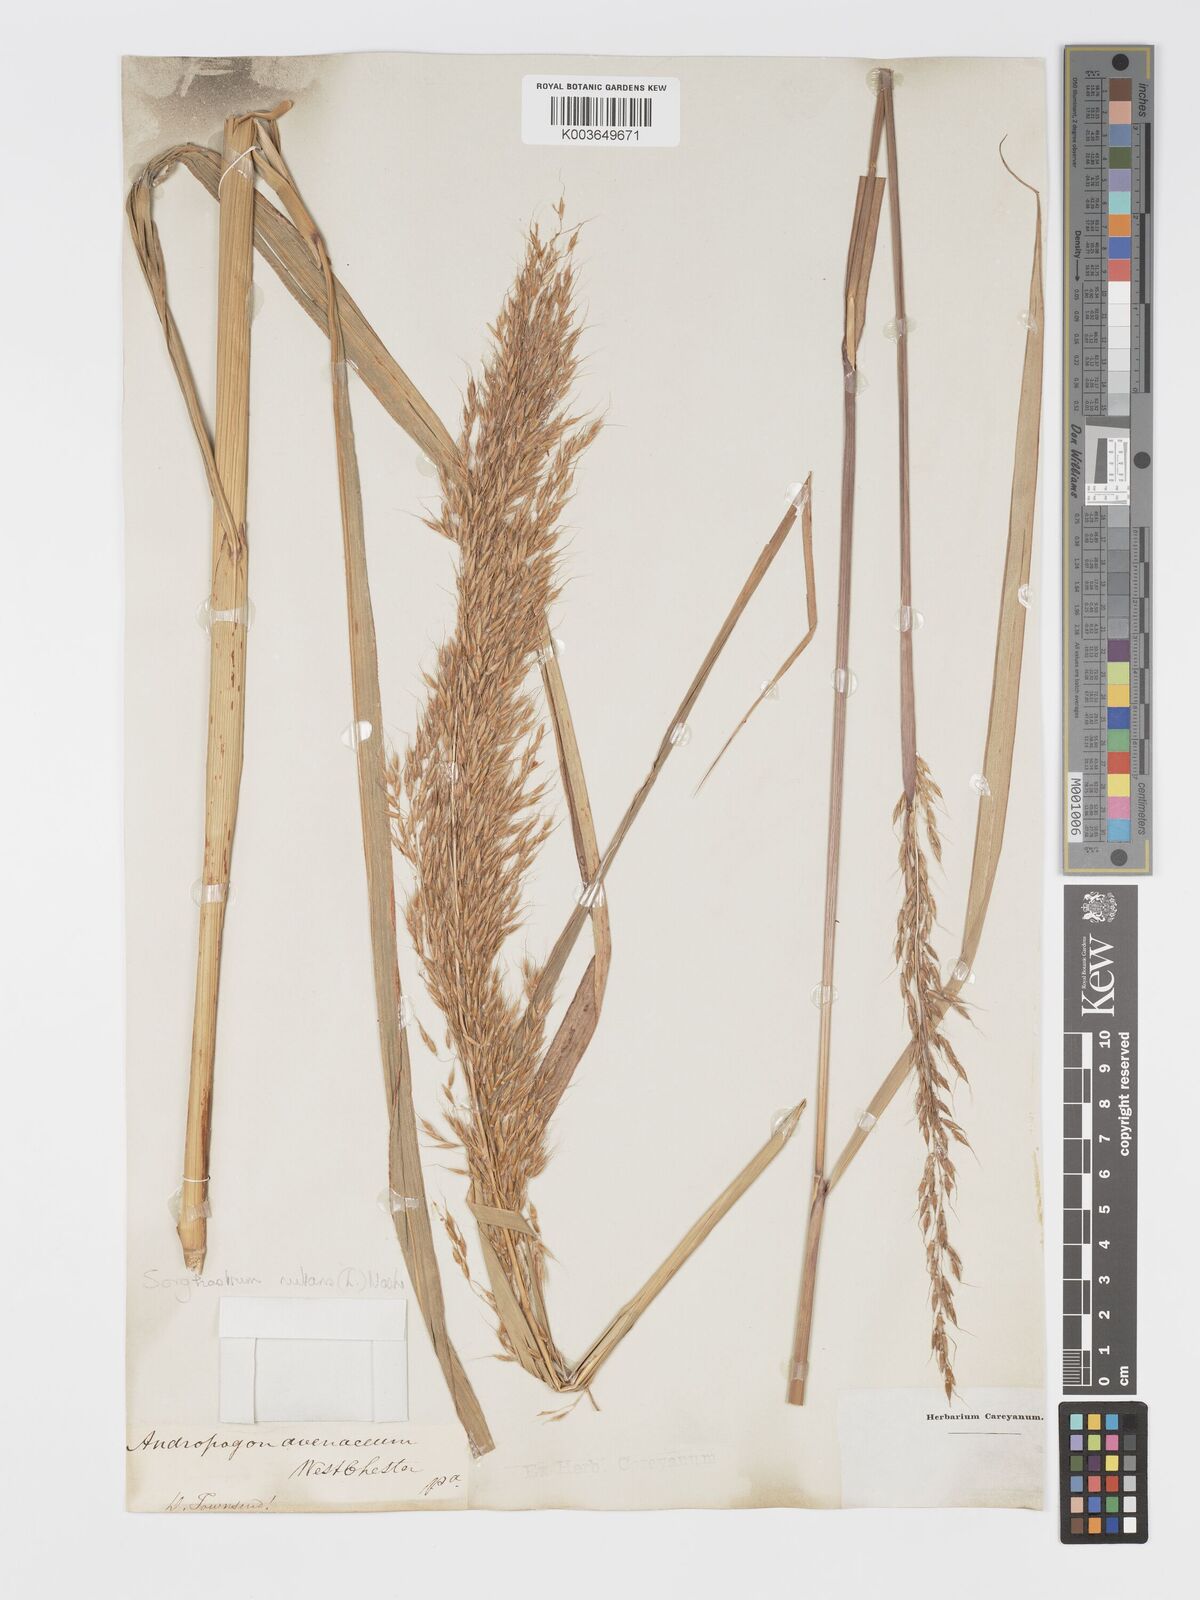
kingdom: Plantae
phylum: Tracheophyta
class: Liliopsida
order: Poales
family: Poaceae
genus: Sorghastrum
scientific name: Sorghastrum nutans
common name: Indian grass
